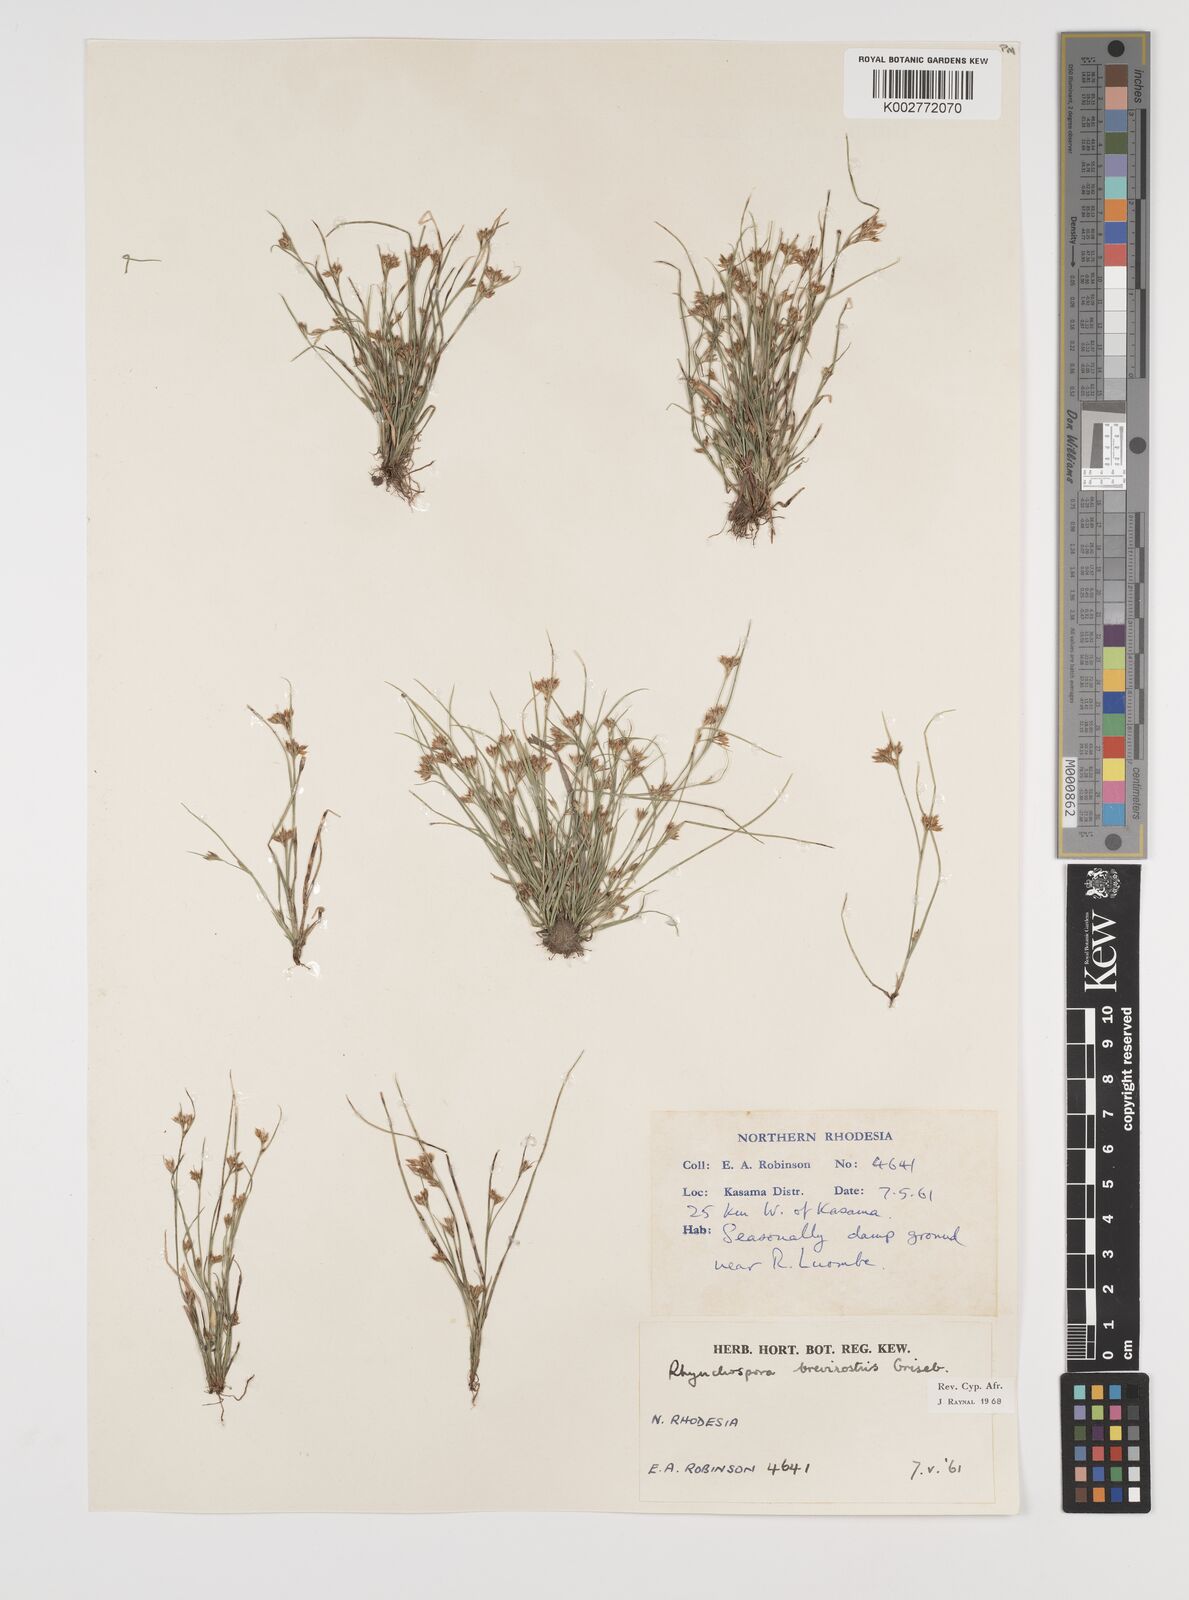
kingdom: Plantae
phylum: Tracheophyta
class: Liliopsida
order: Poales
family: Cyperaceae
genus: Rhynchospora
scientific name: Rhynchospora brevirostris
